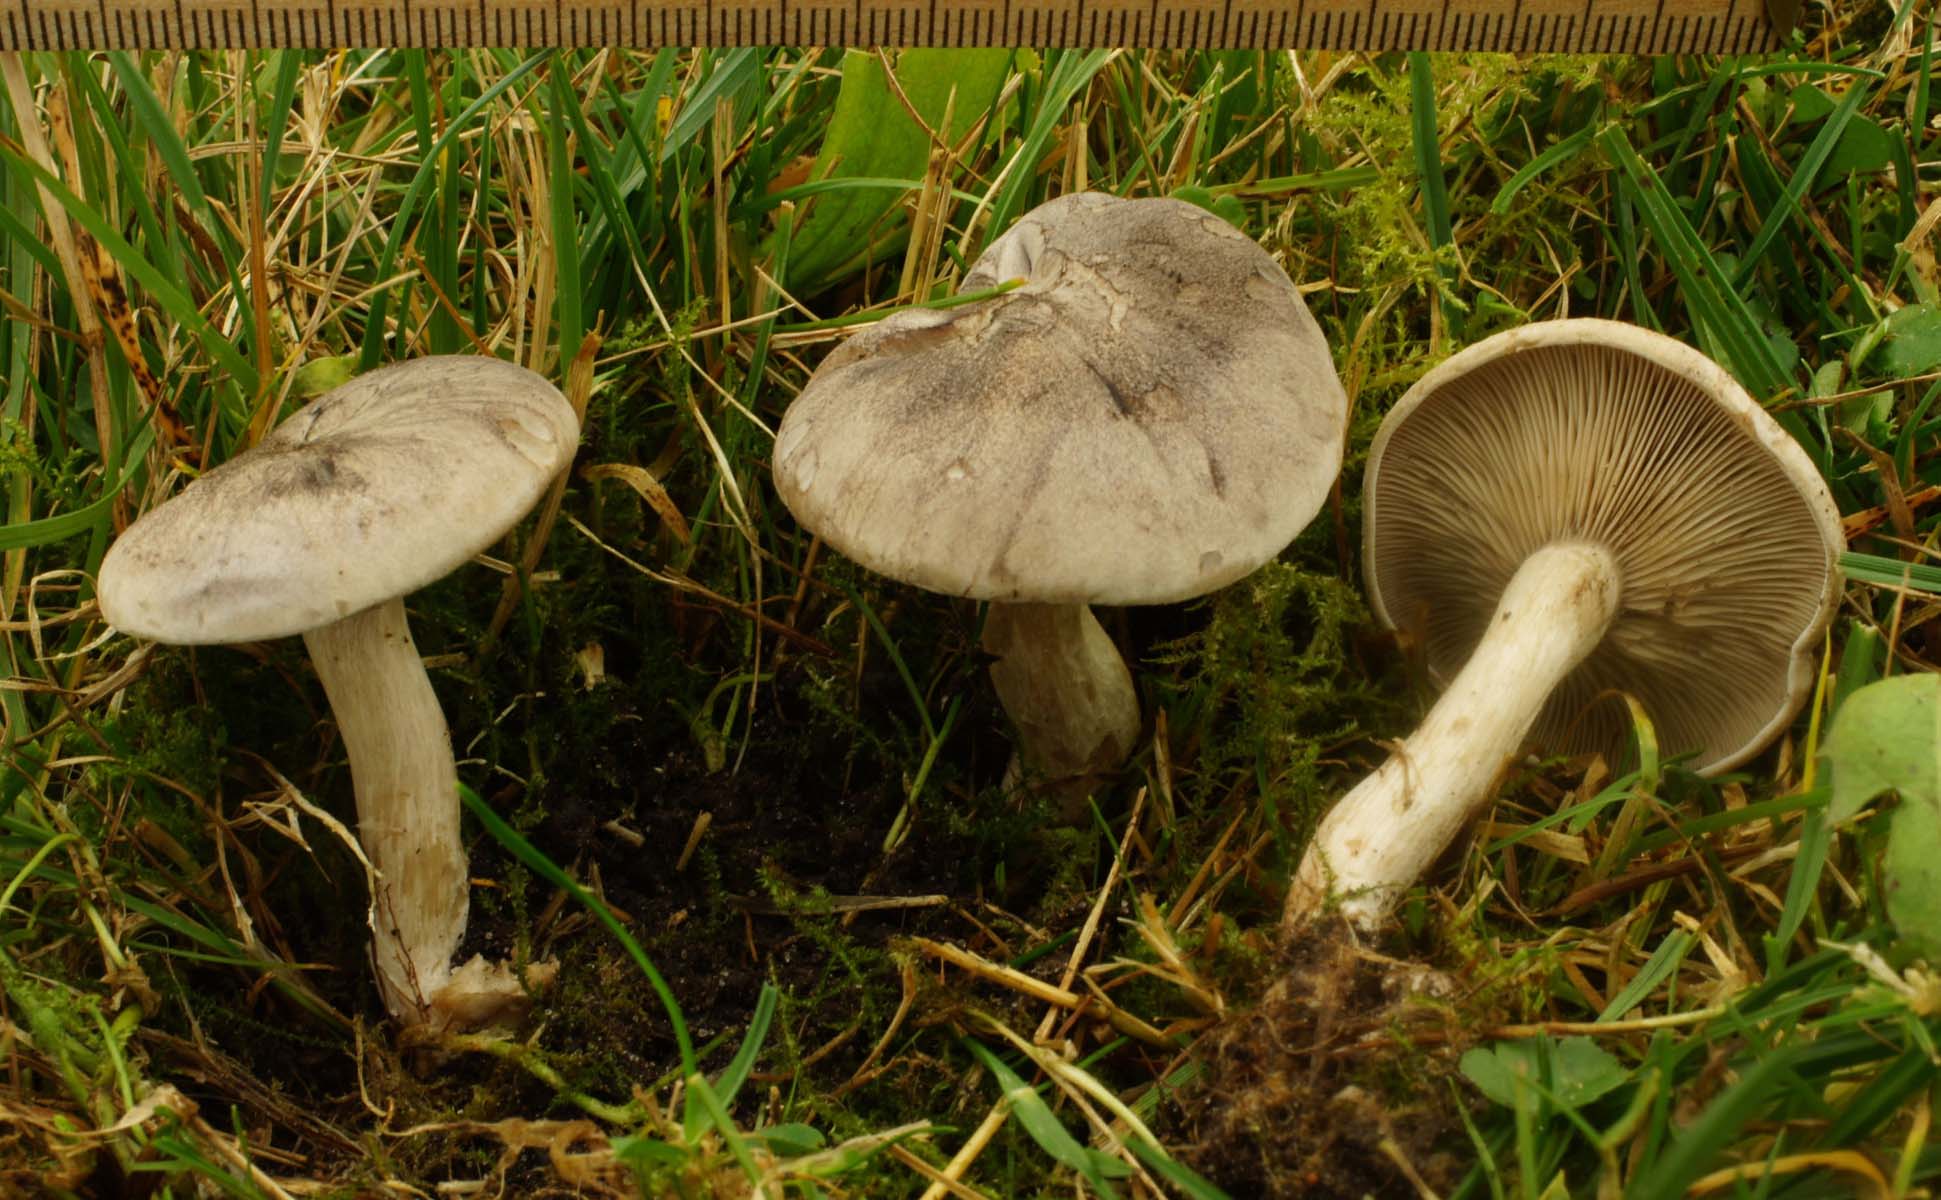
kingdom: Fungi
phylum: Basidiomycota
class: Agaricomycetes
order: Agaricales
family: Tricholomataceae
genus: Lulesia
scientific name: Lulesia
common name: sortnende troldhat
